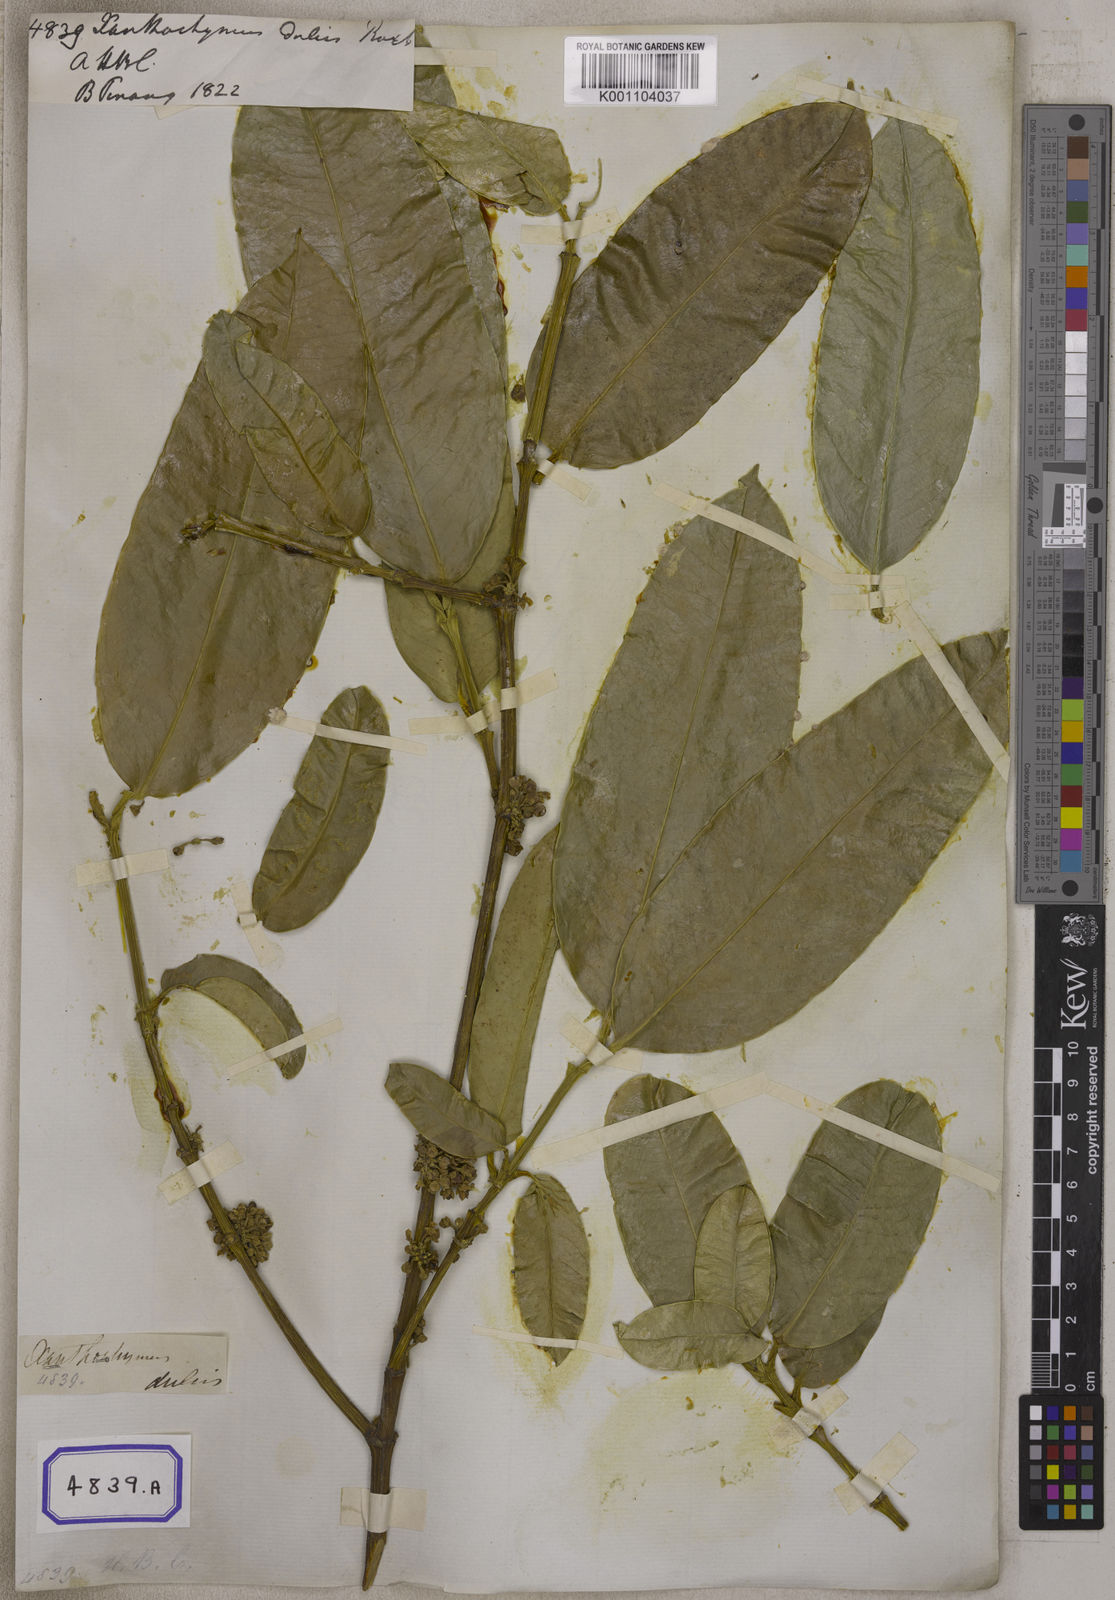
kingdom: Plantae
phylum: Tracheophyta
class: Magnoliopsida
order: Malpighiales
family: Clusiaceae
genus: Garcinia
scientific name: Garcinia dulcis
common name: Eggtree
